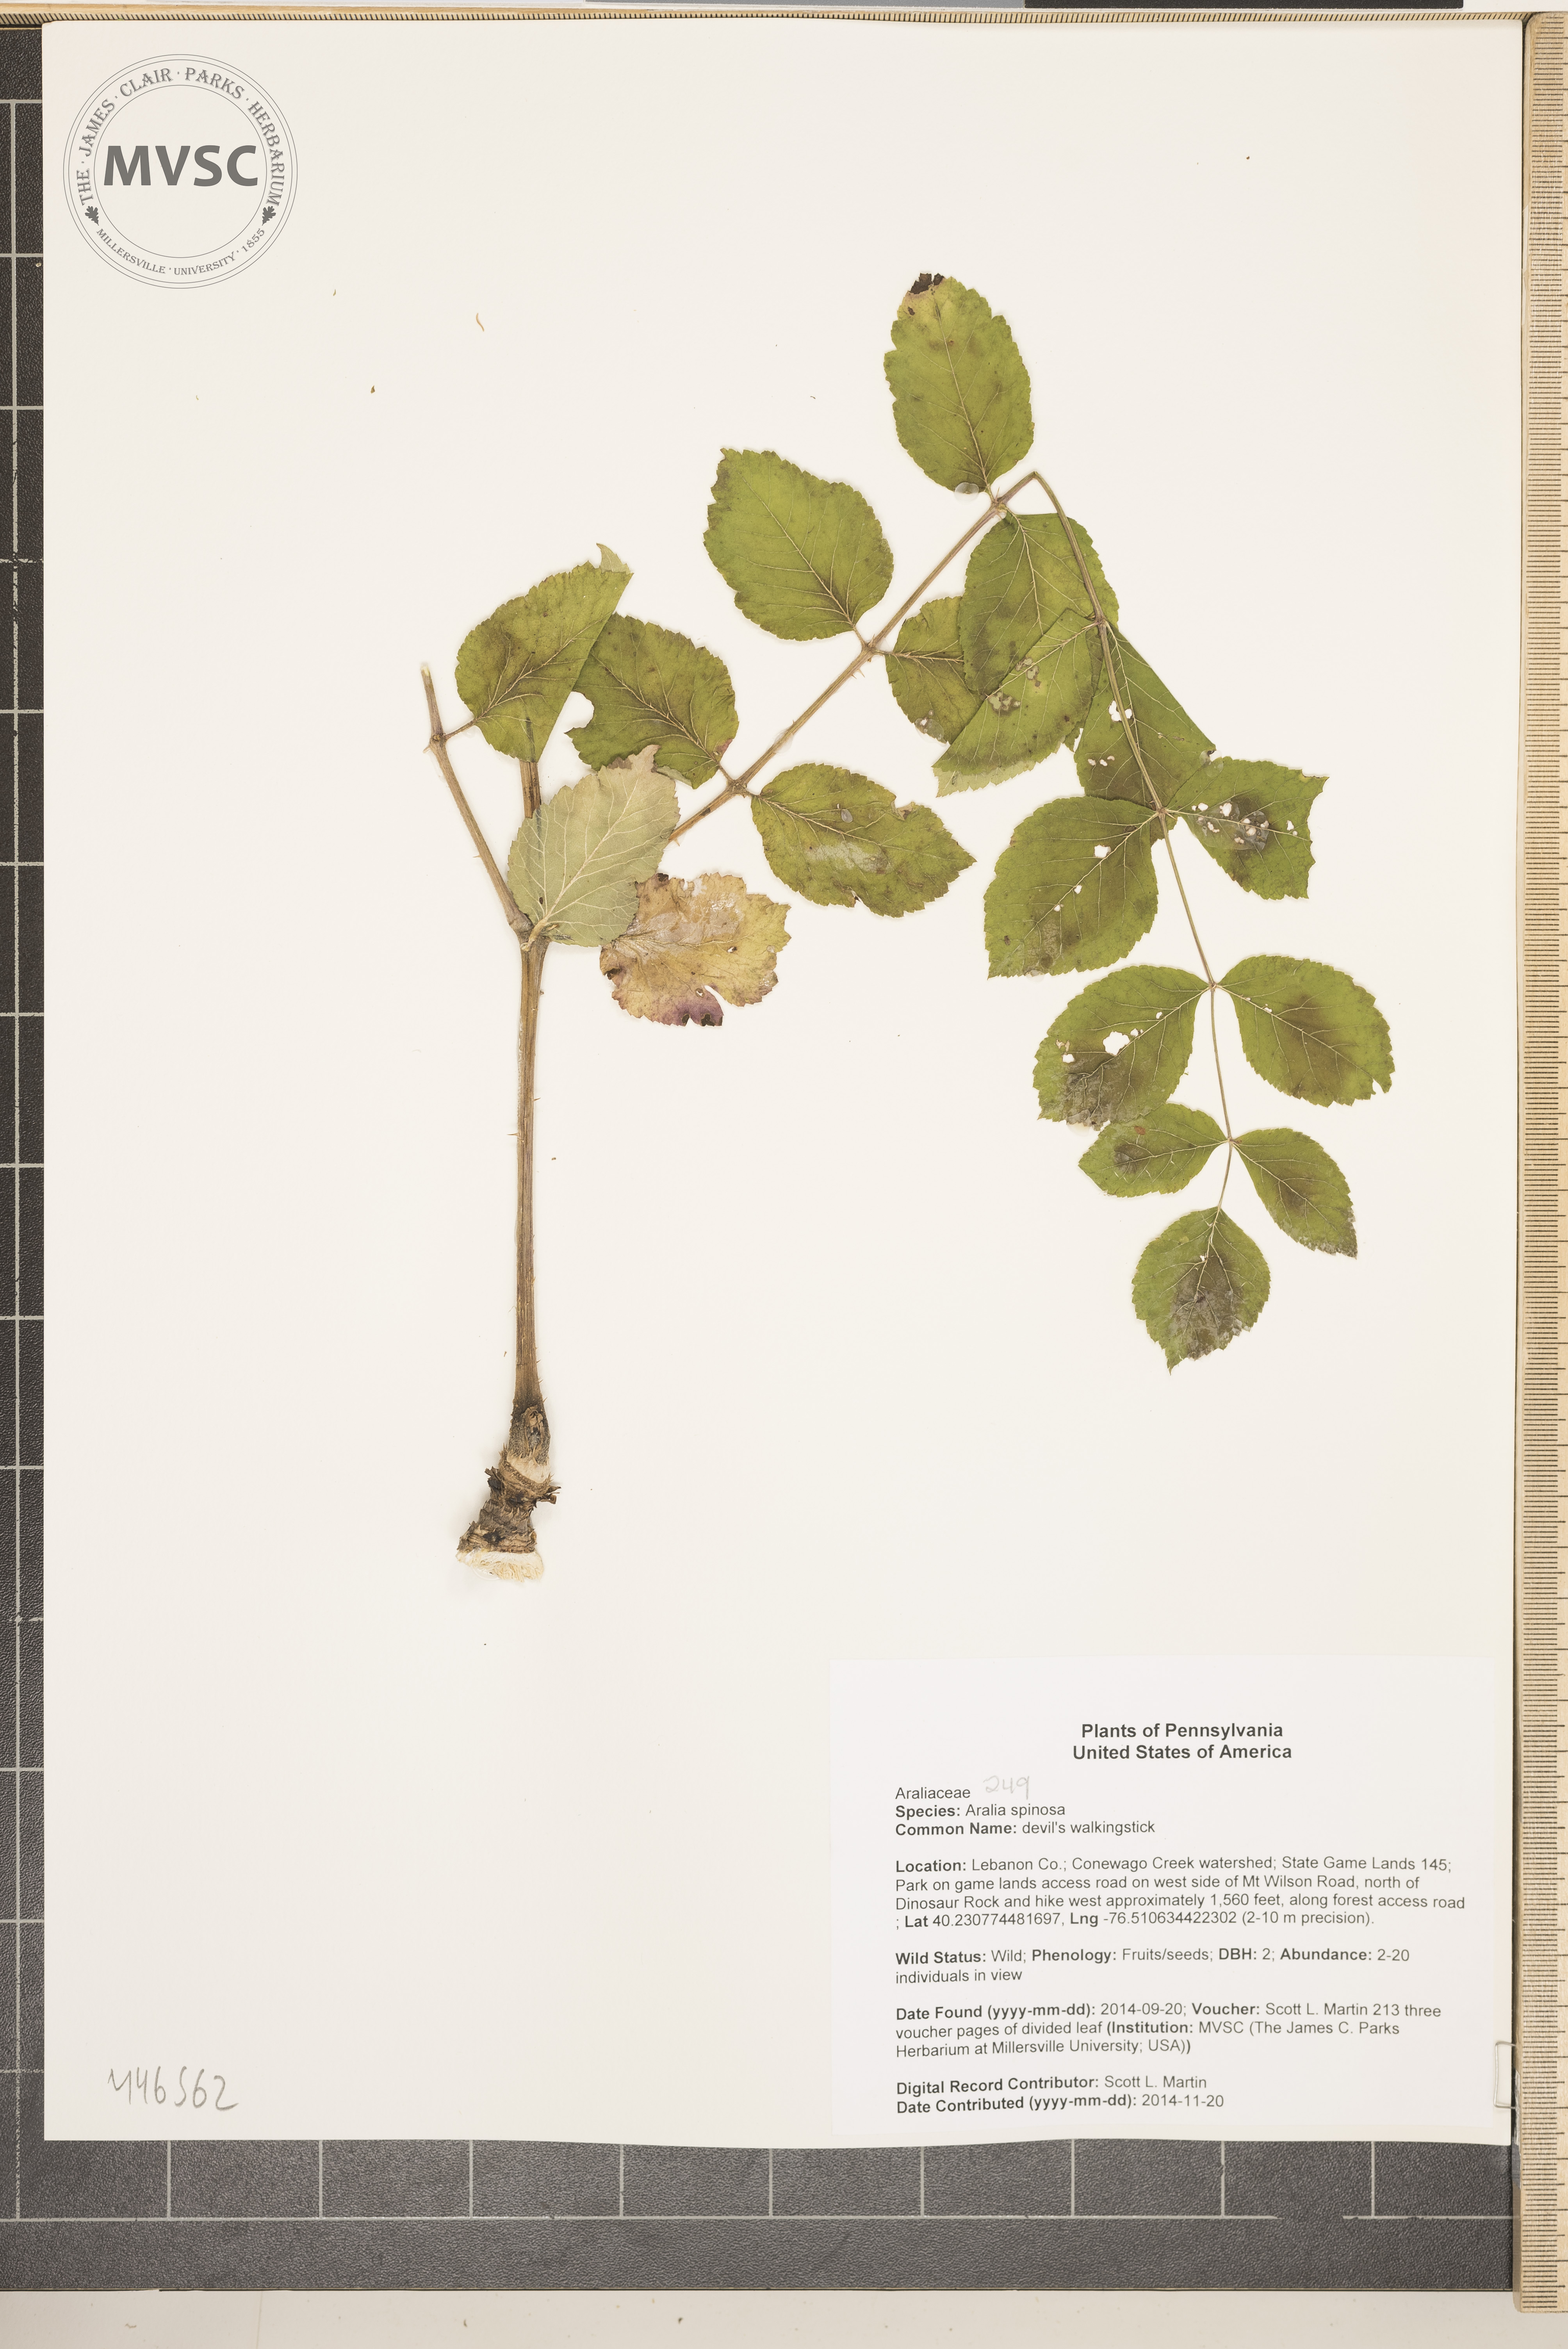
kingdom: Plantae
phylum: Tracheophyta
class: Magnoliopsida
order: Apiales
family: Araliaceae
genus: Aralia
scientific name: Aralia spinosa
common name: devil's walkingstick
